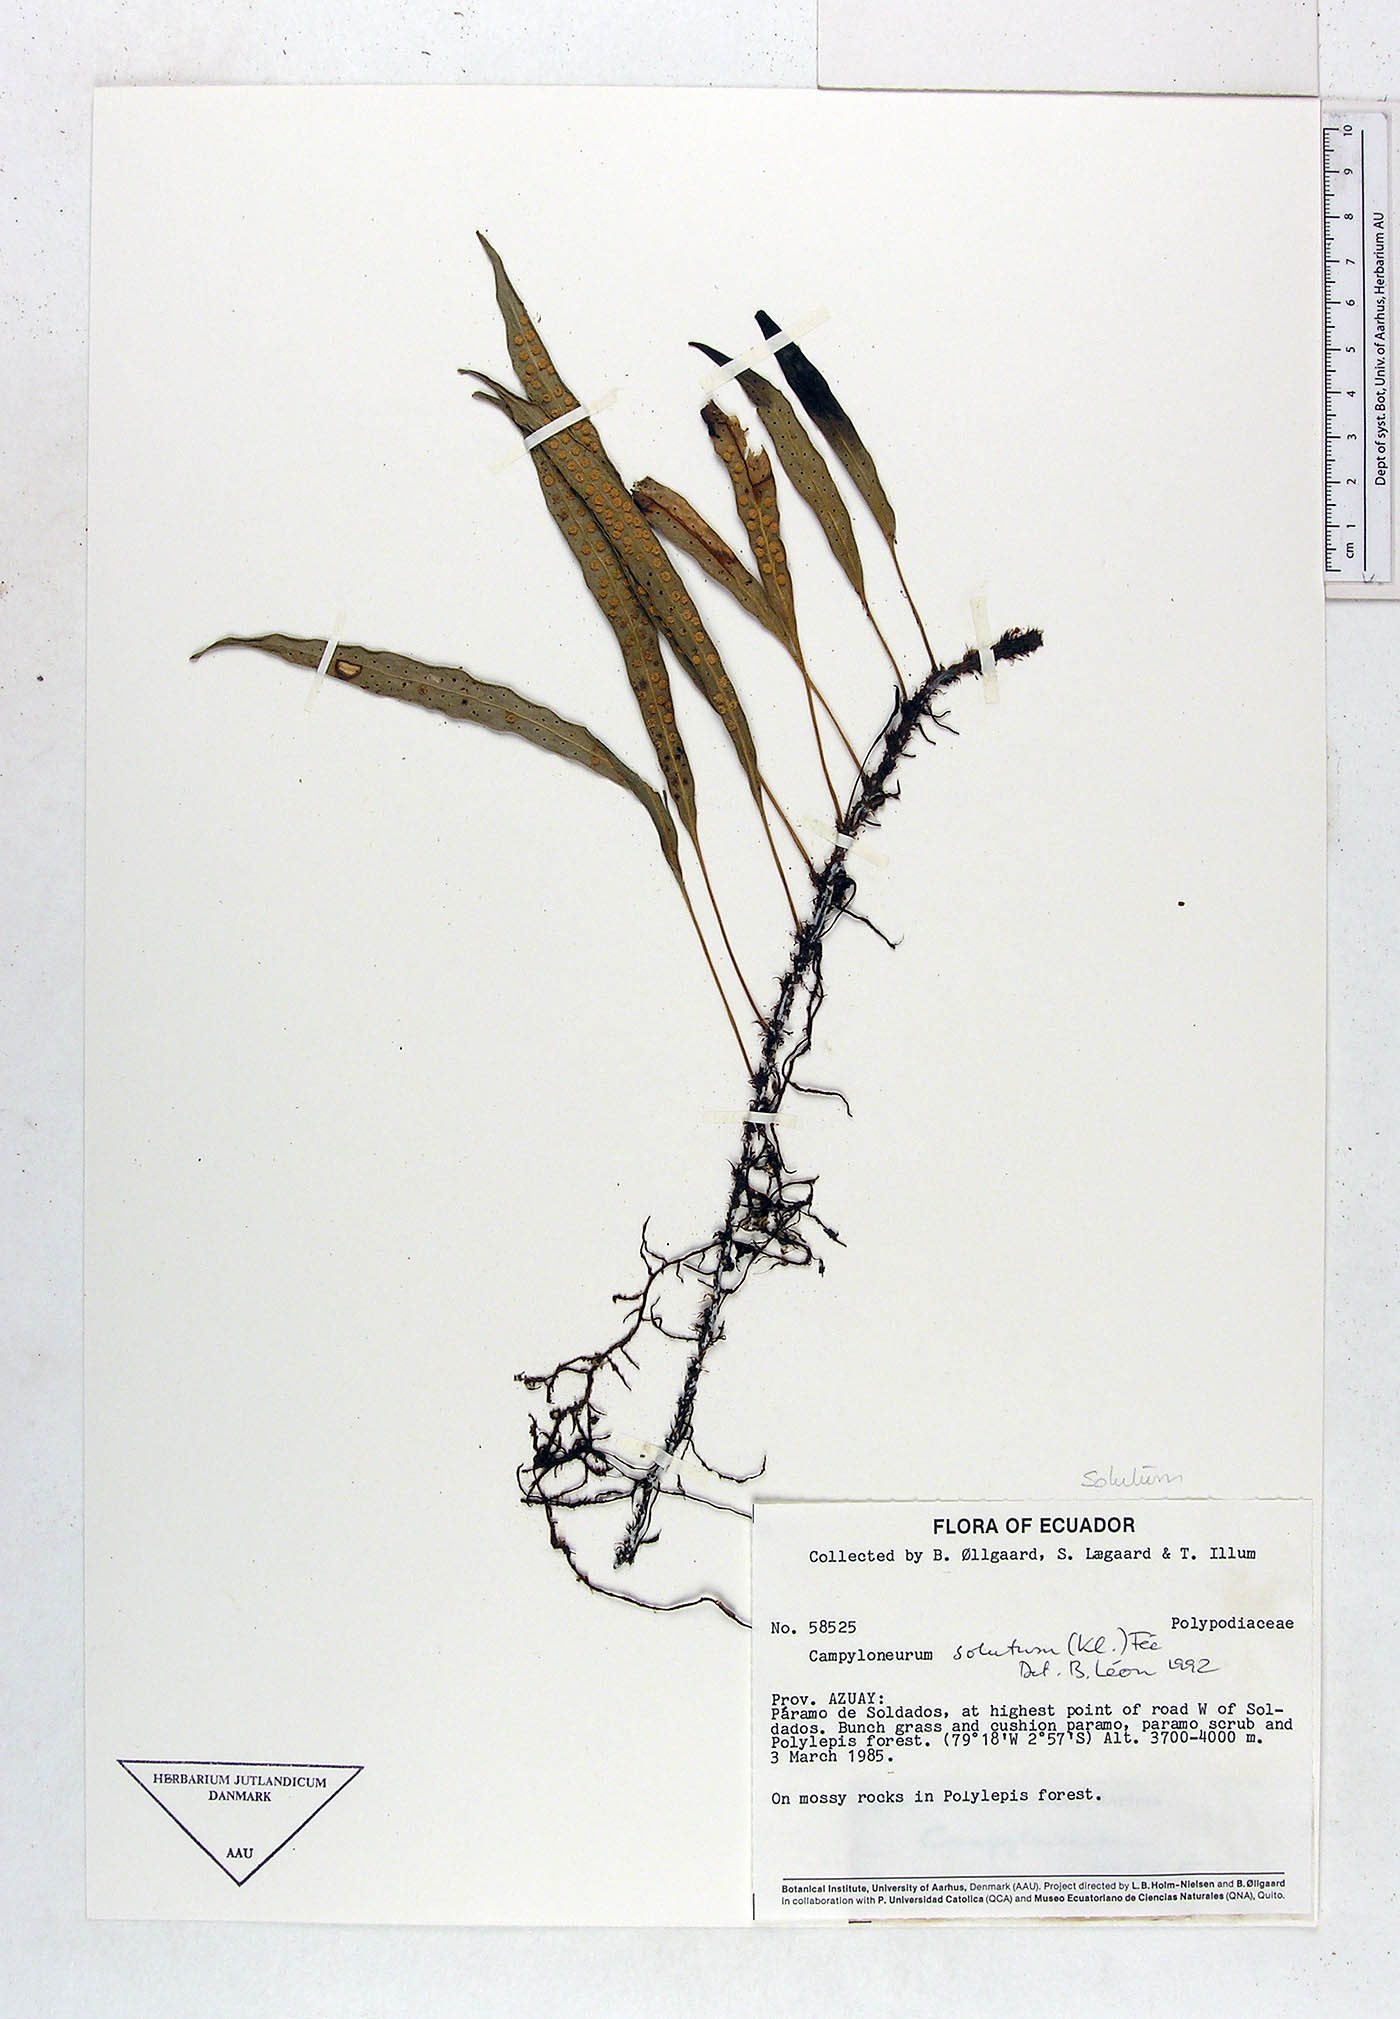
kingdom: Plantae
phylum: Tracheophyta
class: Polypodiopsida
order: Polypodiales
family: Polypodiaceae
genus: Campyloneurum
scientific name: Campyloneurum
